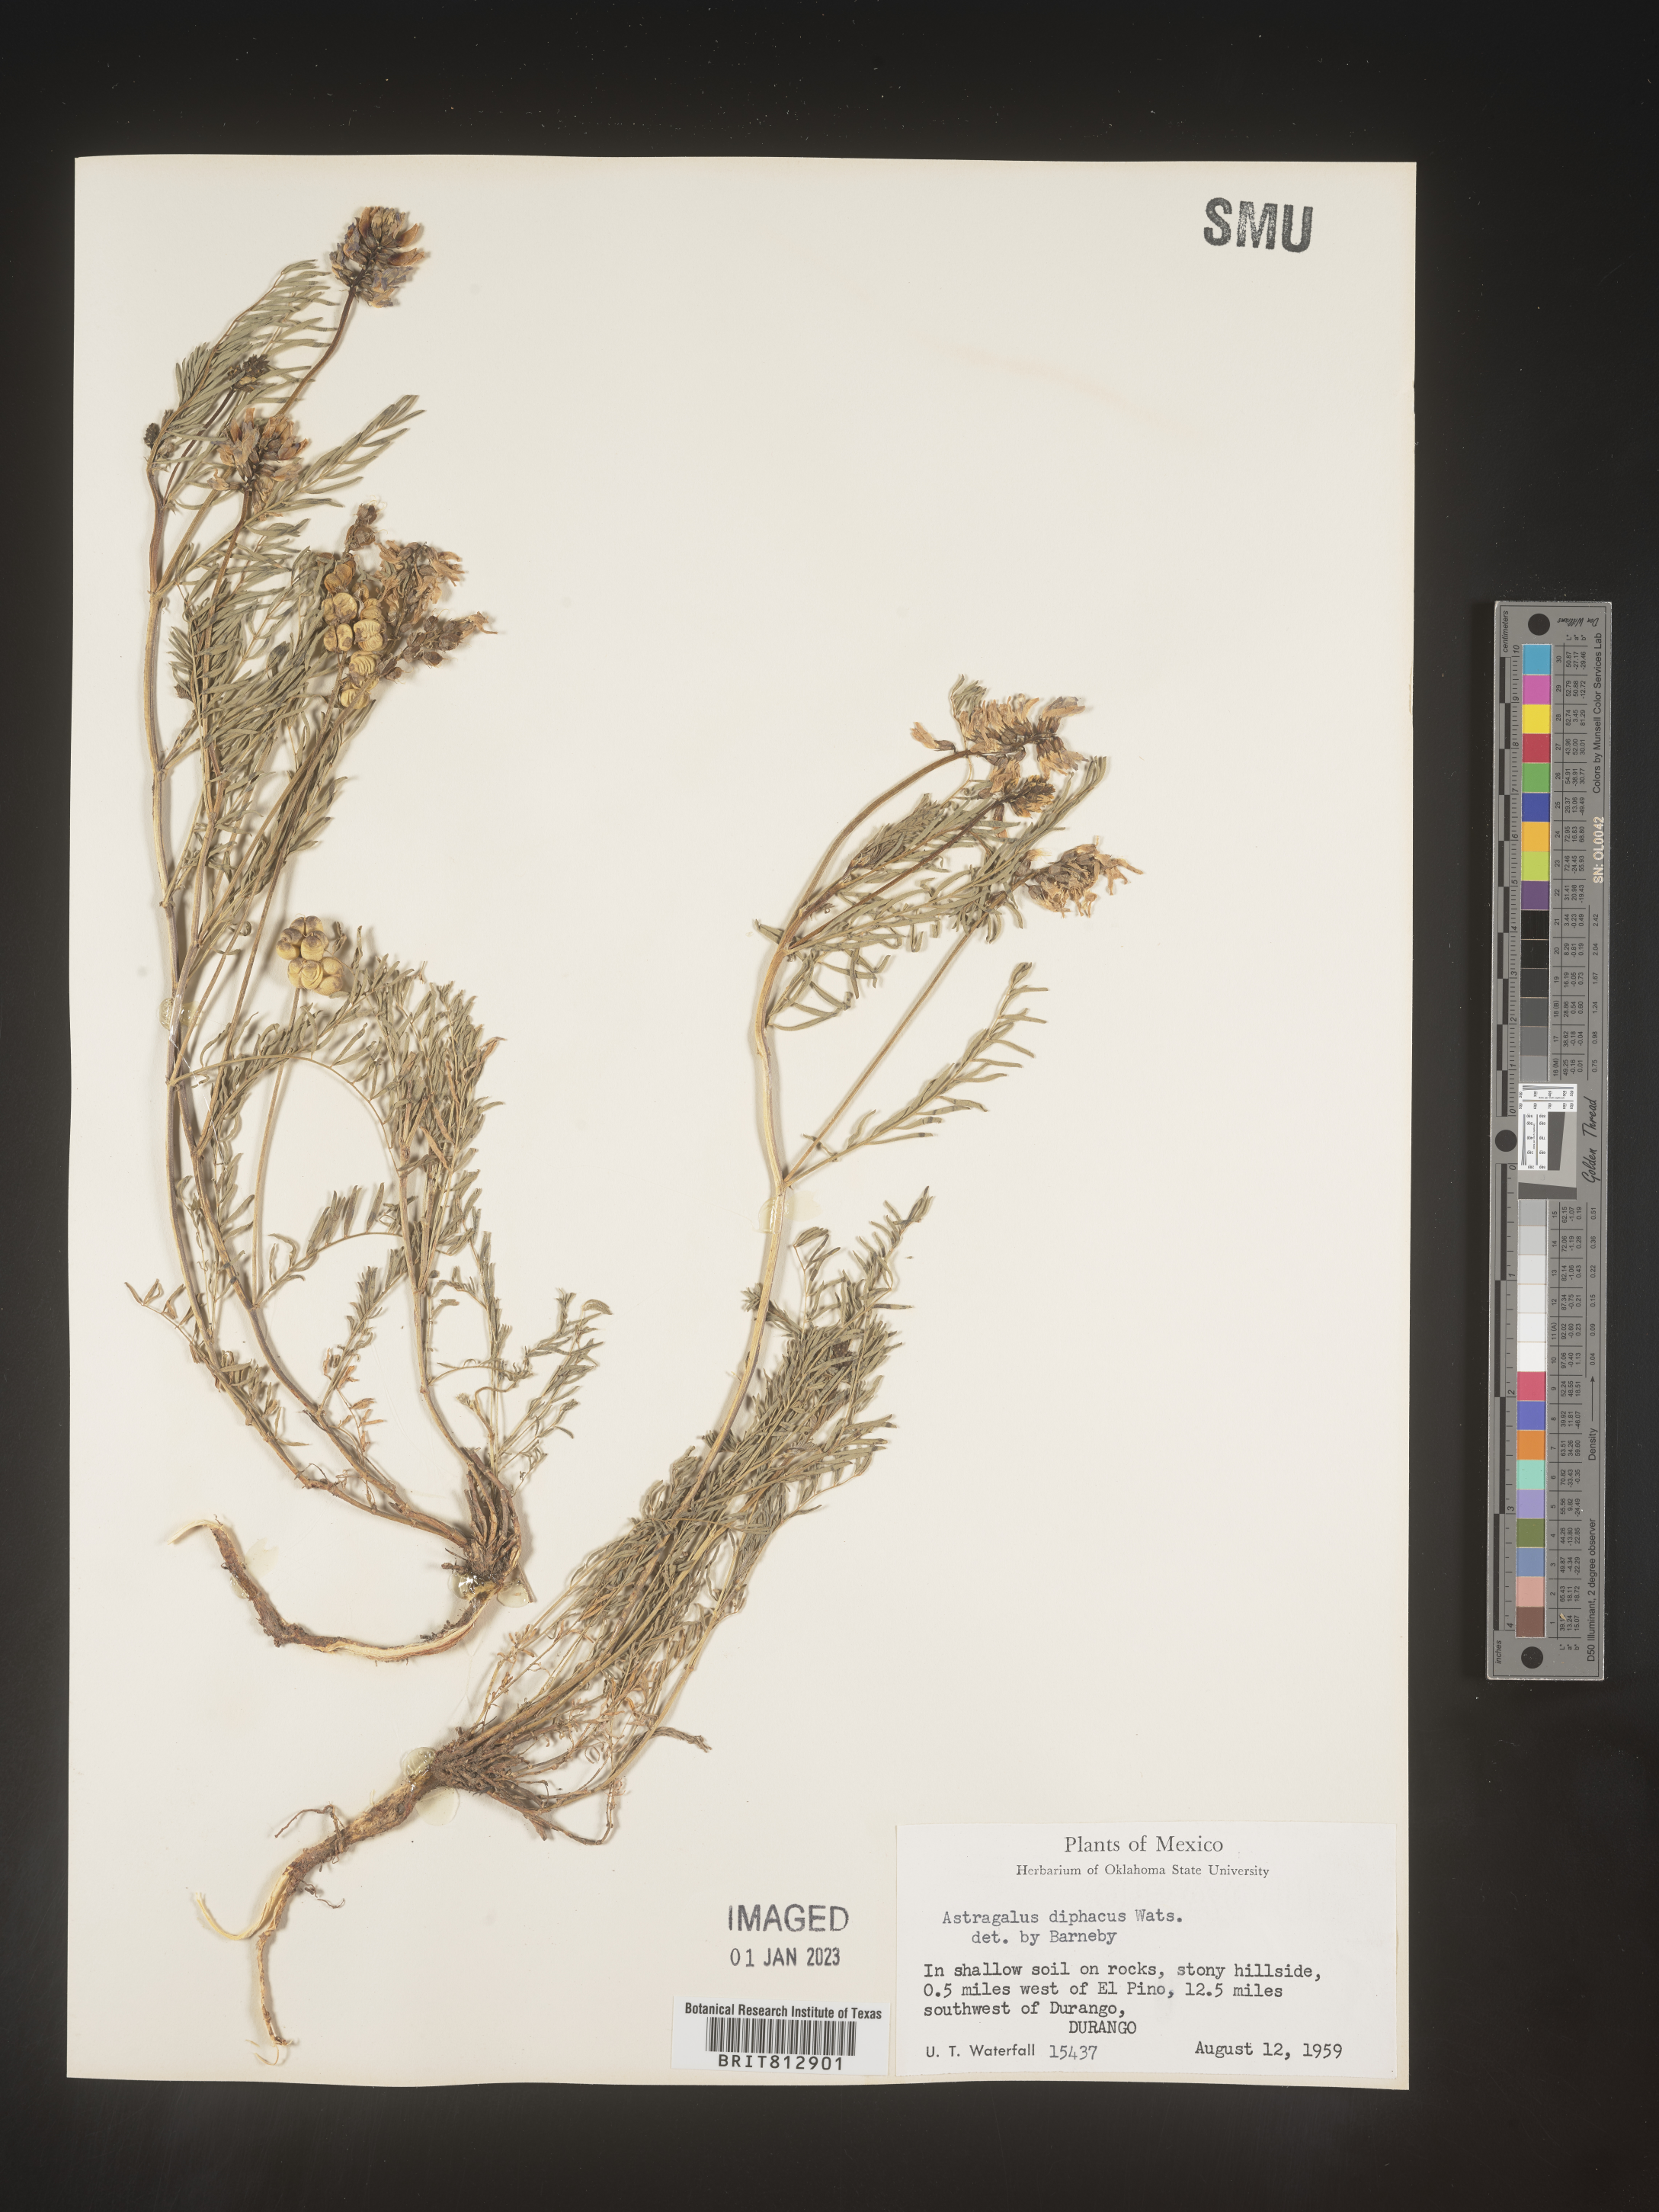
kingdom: Plantae
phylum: Tracheophyta
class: Magnoliopsida
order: Fabales
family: Fabaceae
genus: Astragalus
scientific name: Astragalus
